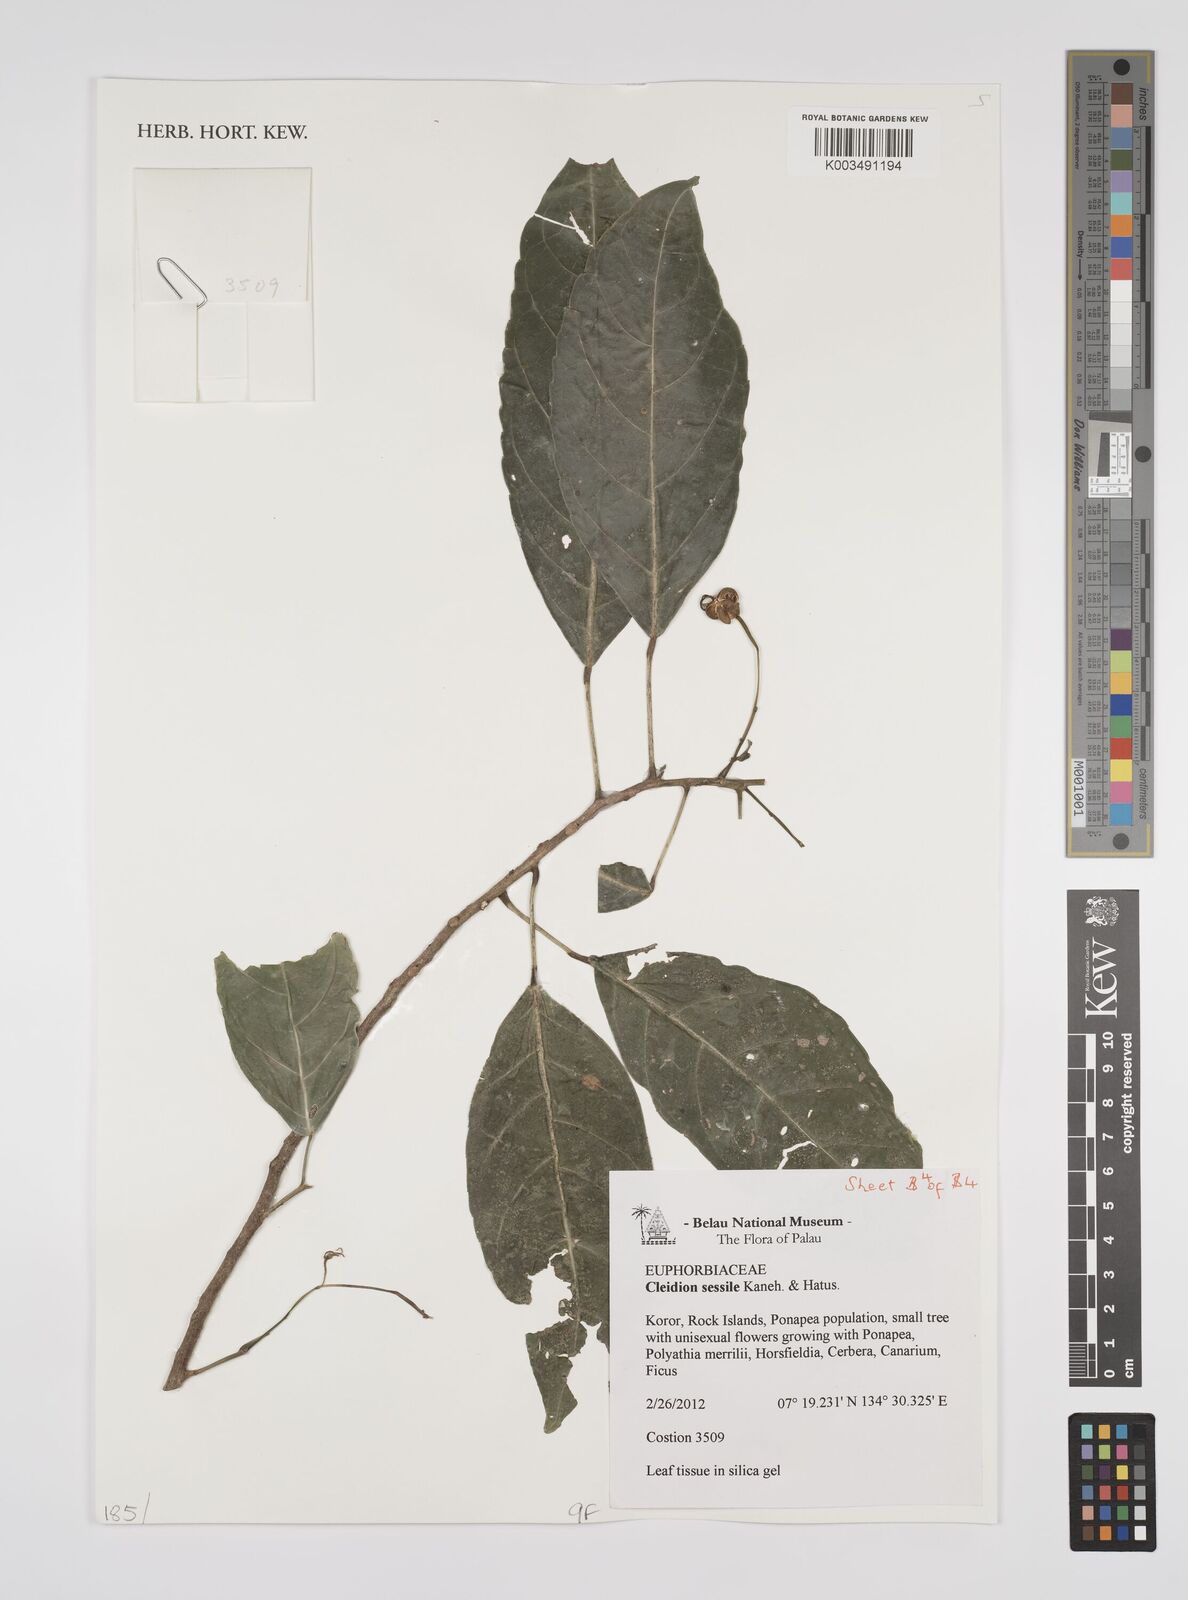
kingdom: Plantae
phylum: Tracheophyta
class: Magnoliopsida
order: Malpighiales
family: Euphorbiaceae
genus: Cleidion
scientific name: Cleidion sessile
